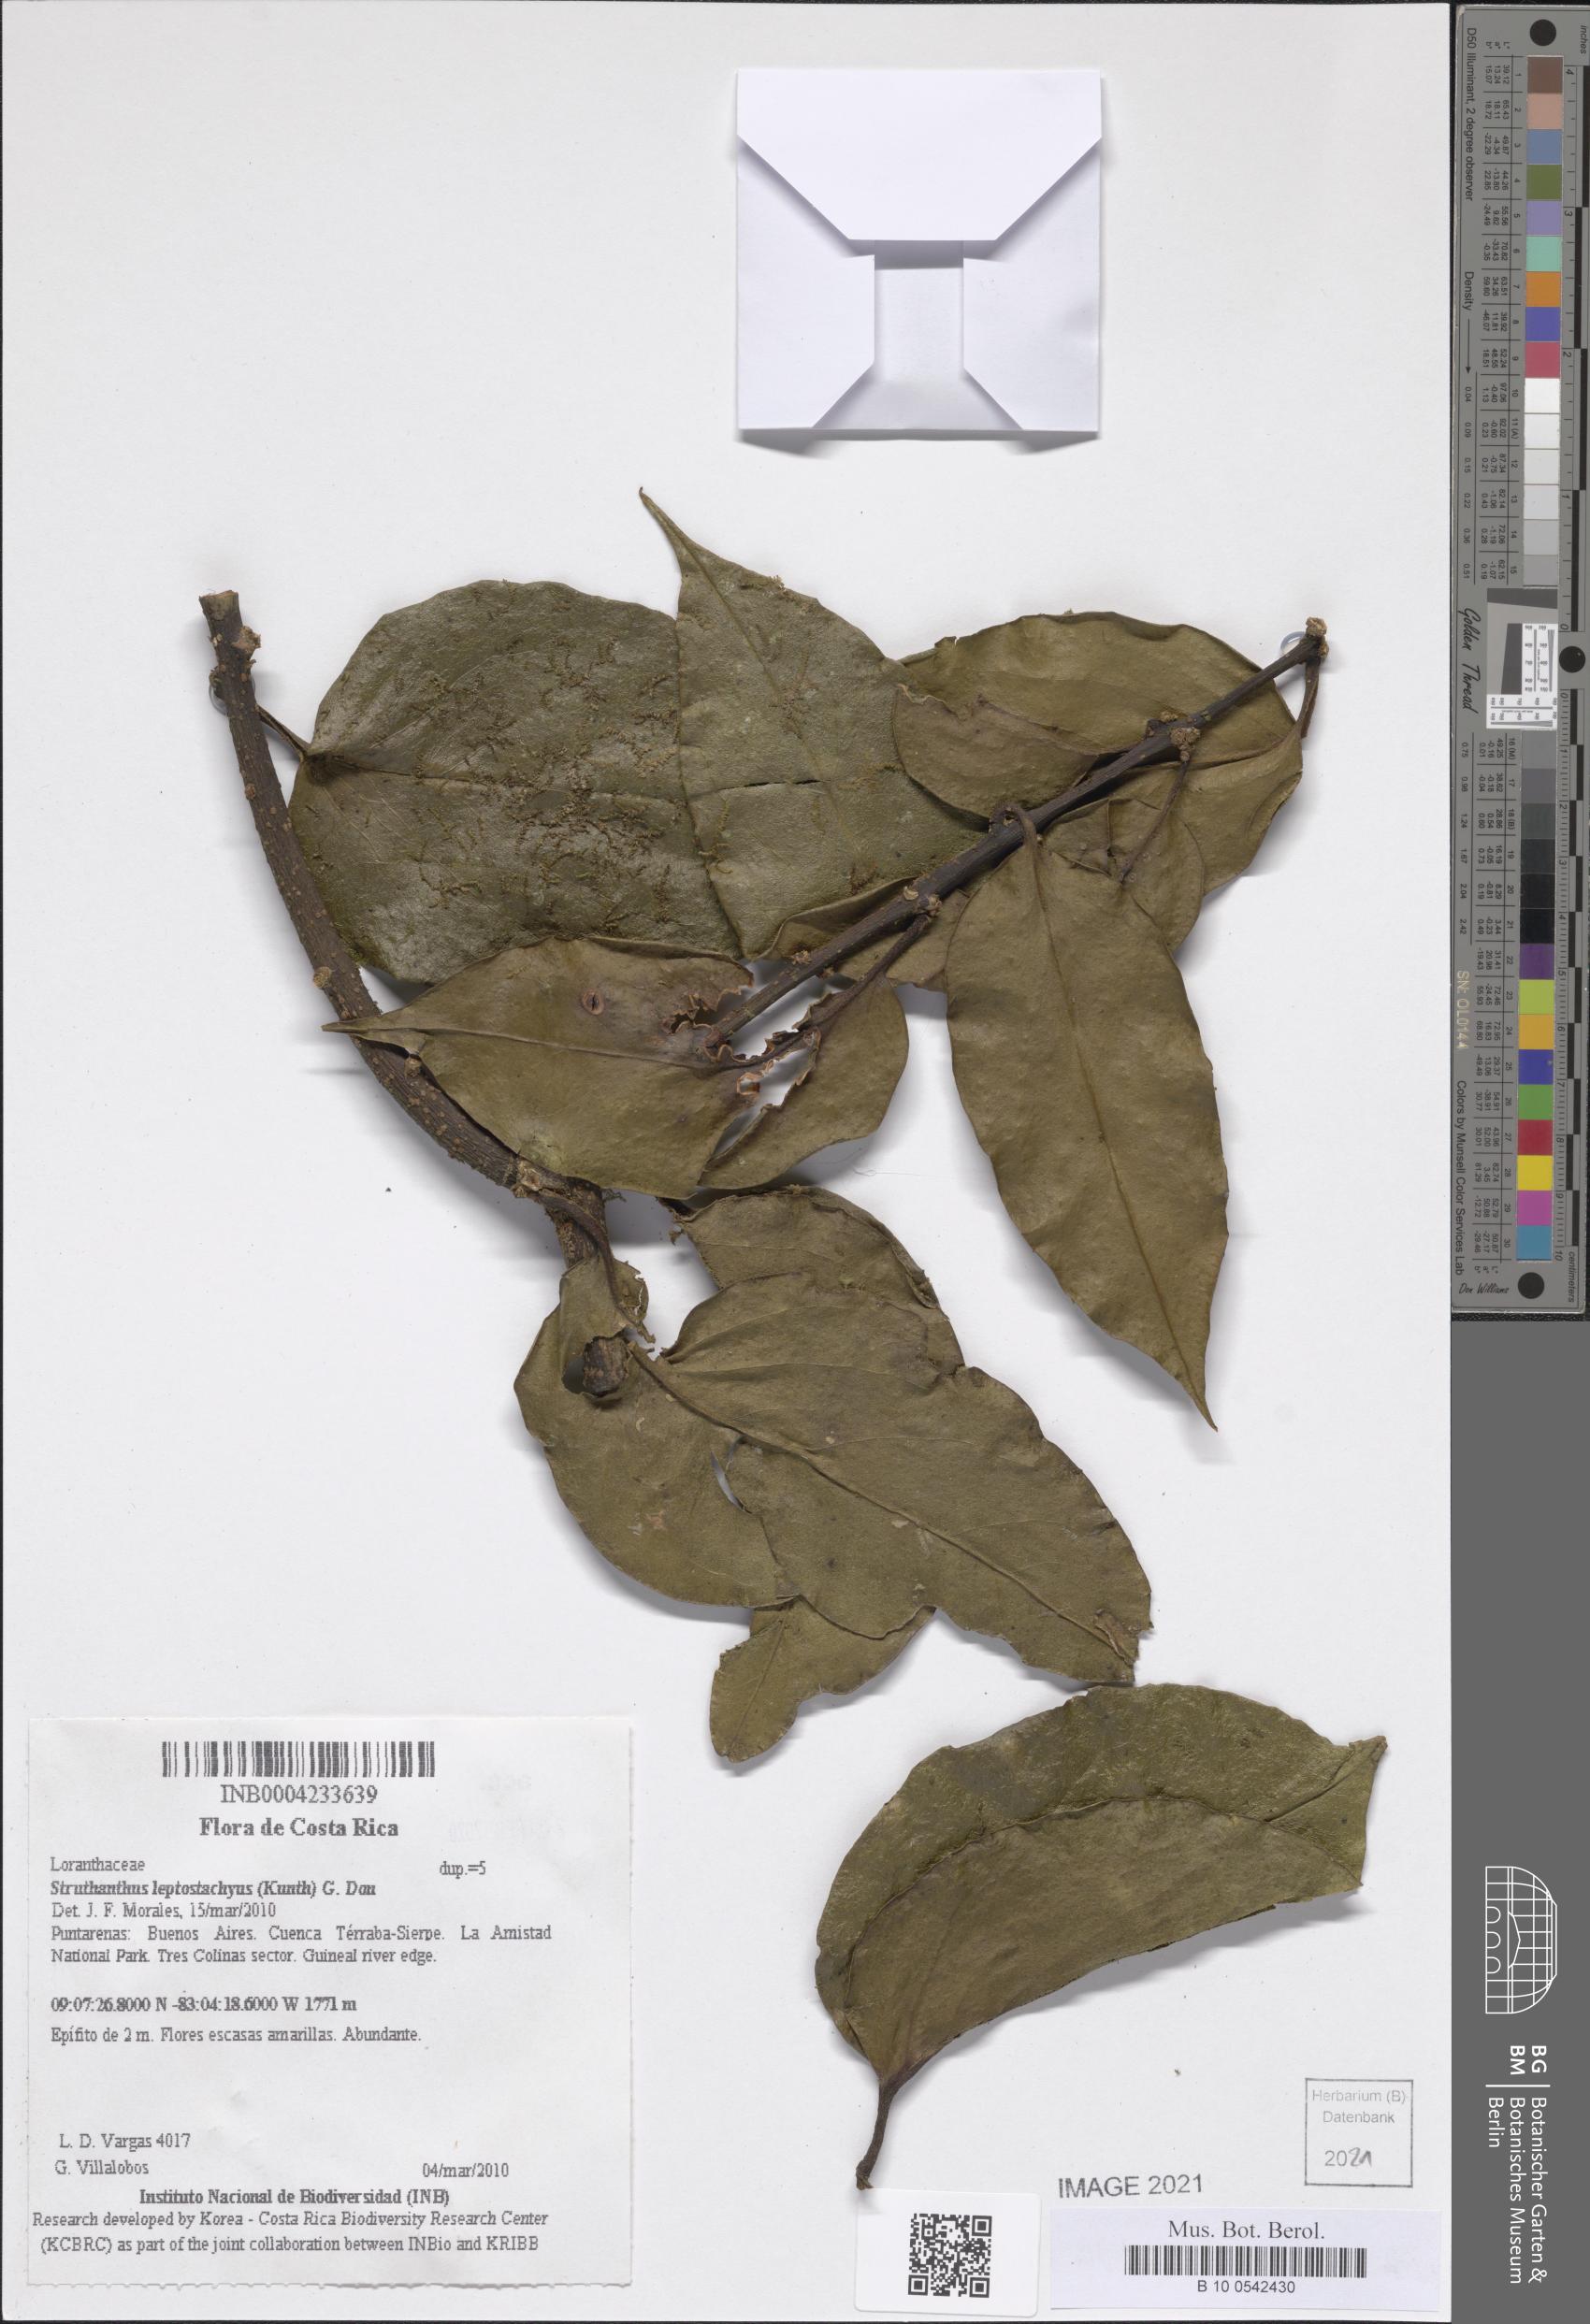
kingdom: Plantae
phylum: Tracheophyta
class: Magnoliopsida
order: Santalales
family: Loranthaceae
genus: Peristethium
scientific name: Peristethium leptostachyum
